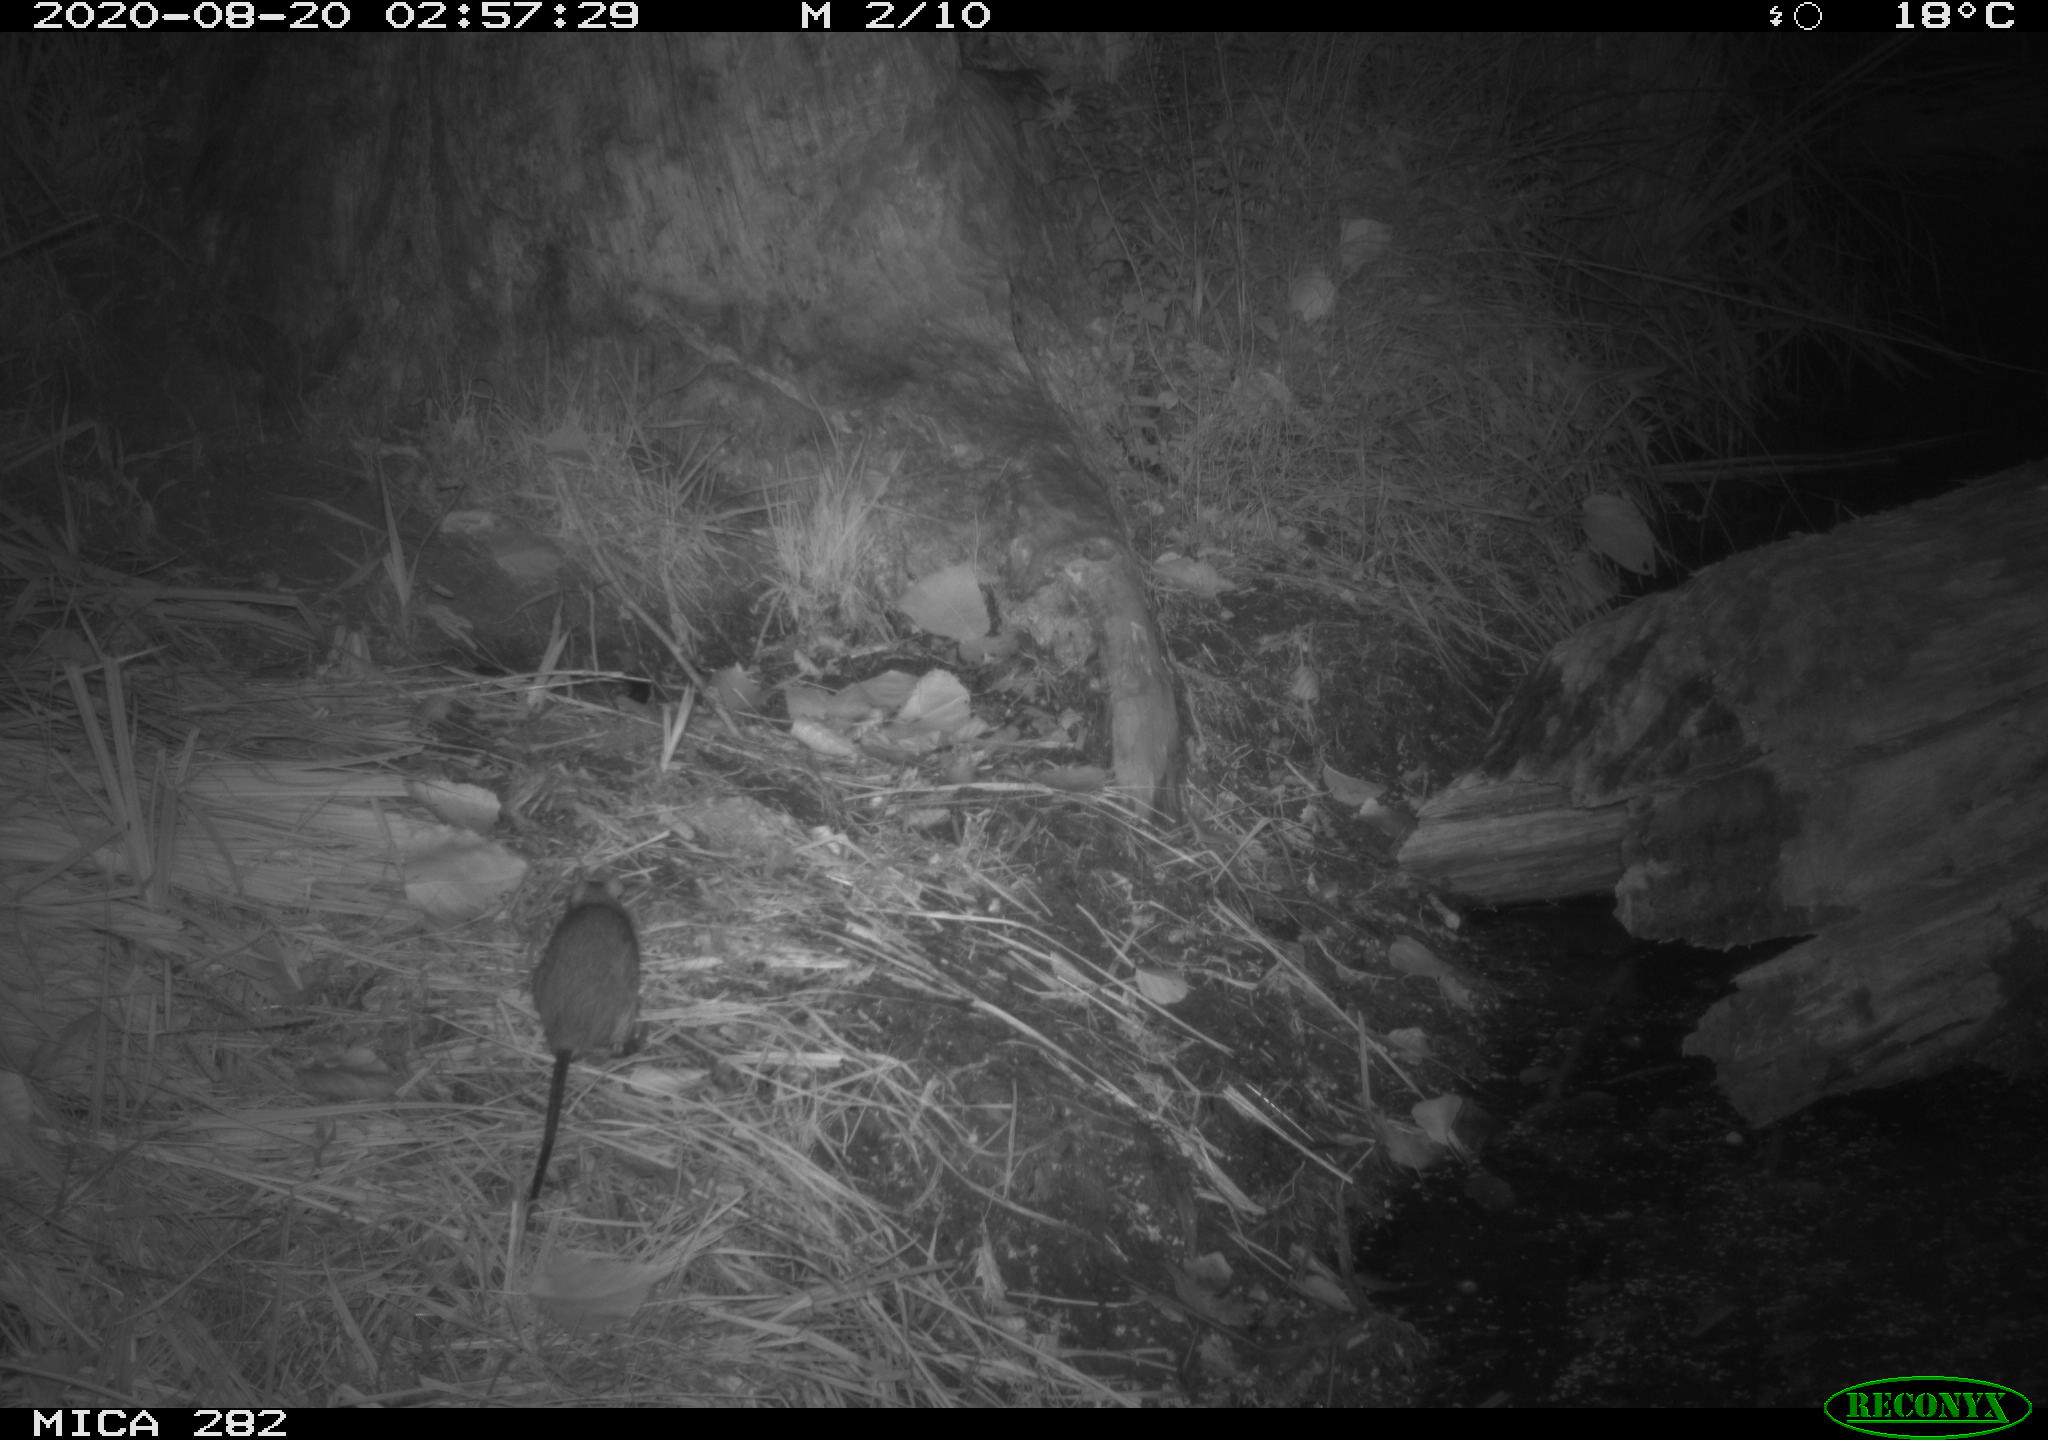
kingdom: Animalia
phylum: Chordata
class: Mammalia
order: Rodentia
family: Muridae
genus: Rattus
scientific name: Rattus norvegicus
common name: Brown rat
